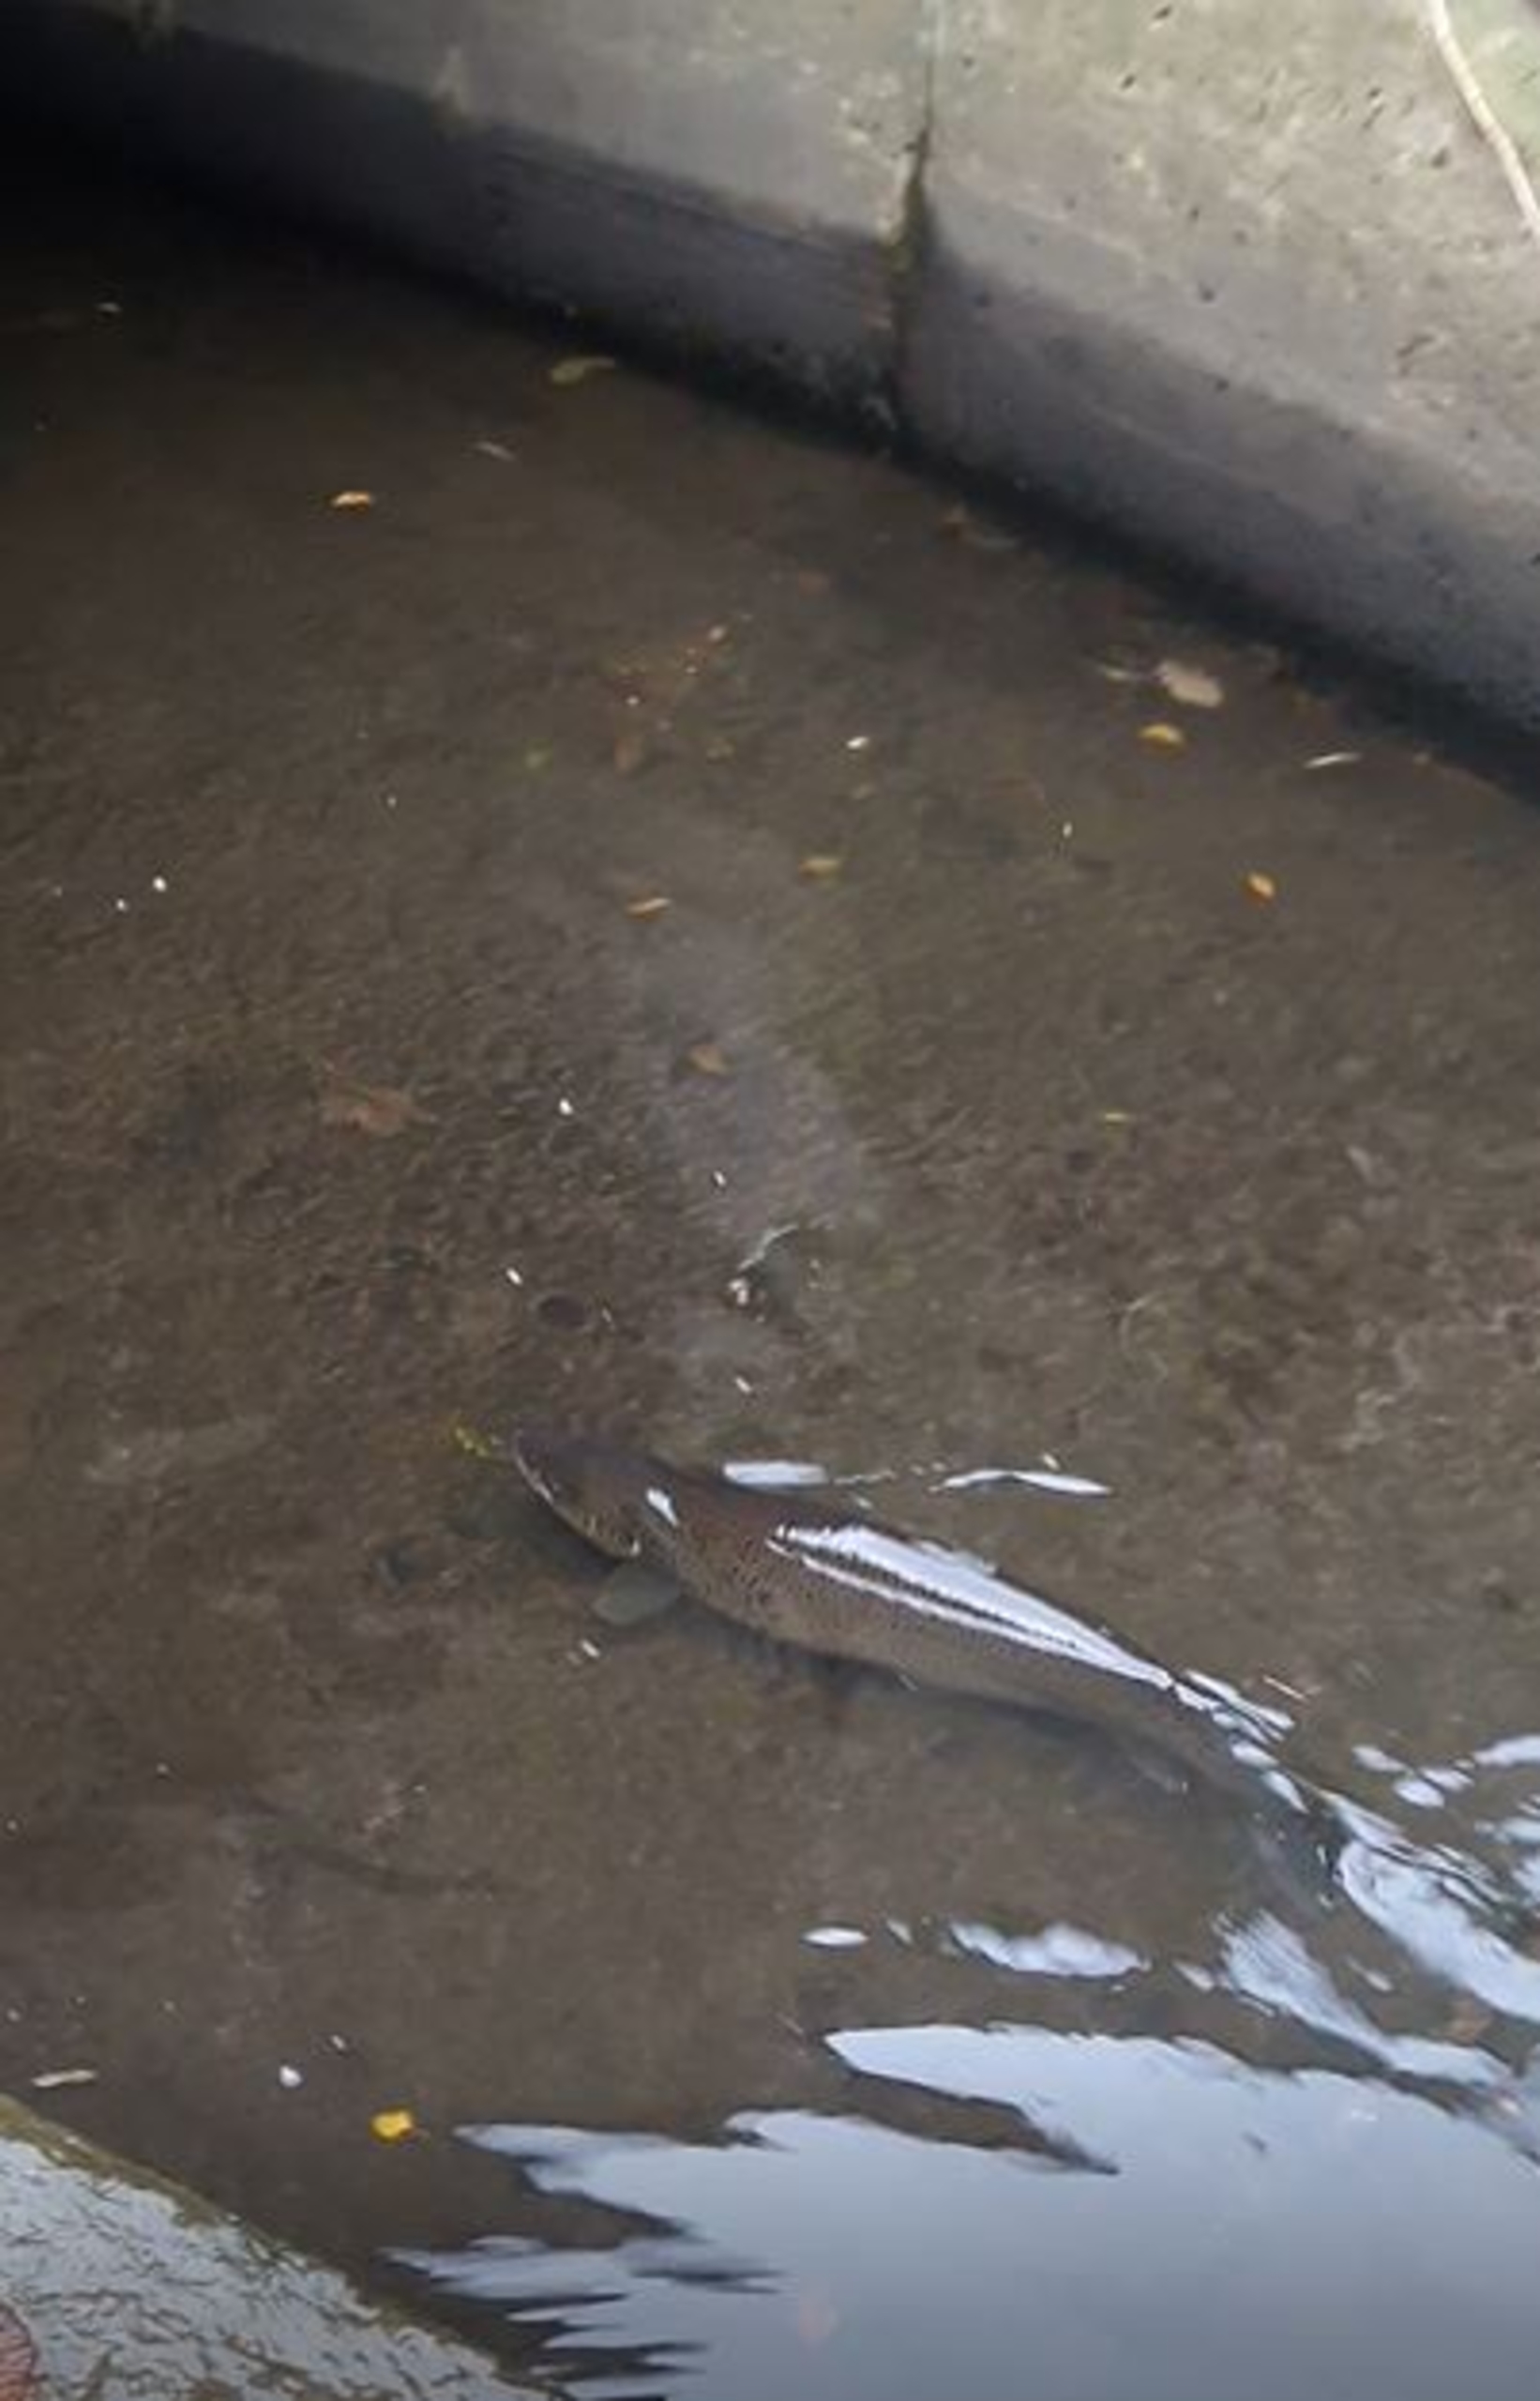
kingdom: Animalia
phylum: Chordata
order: Salmoniformes
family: Salmonidae
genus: Salmo
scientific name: Salmo trutta
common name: Ørred
